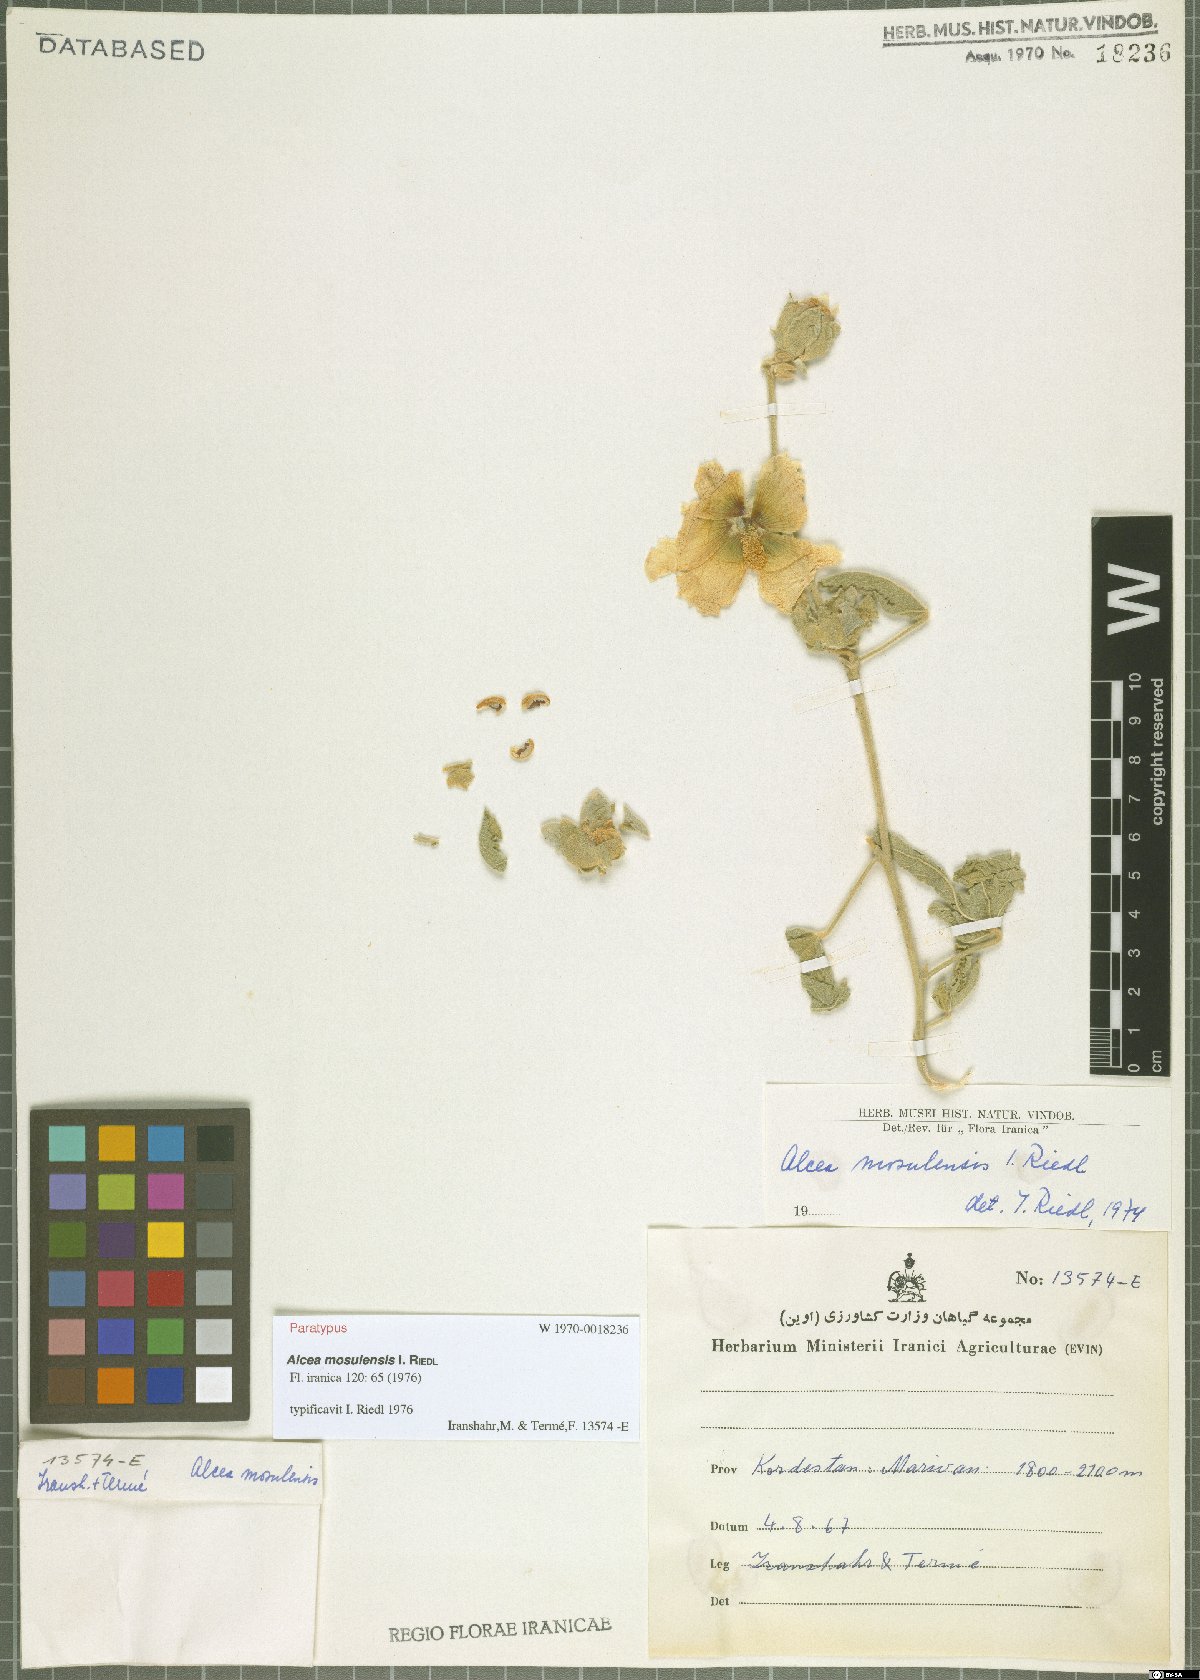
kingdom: Plantae
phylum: Tracheophyta
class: Magnoliopsida
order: Malvales
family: Malvaceae
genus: Alcea
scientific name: Alcea kurdica
